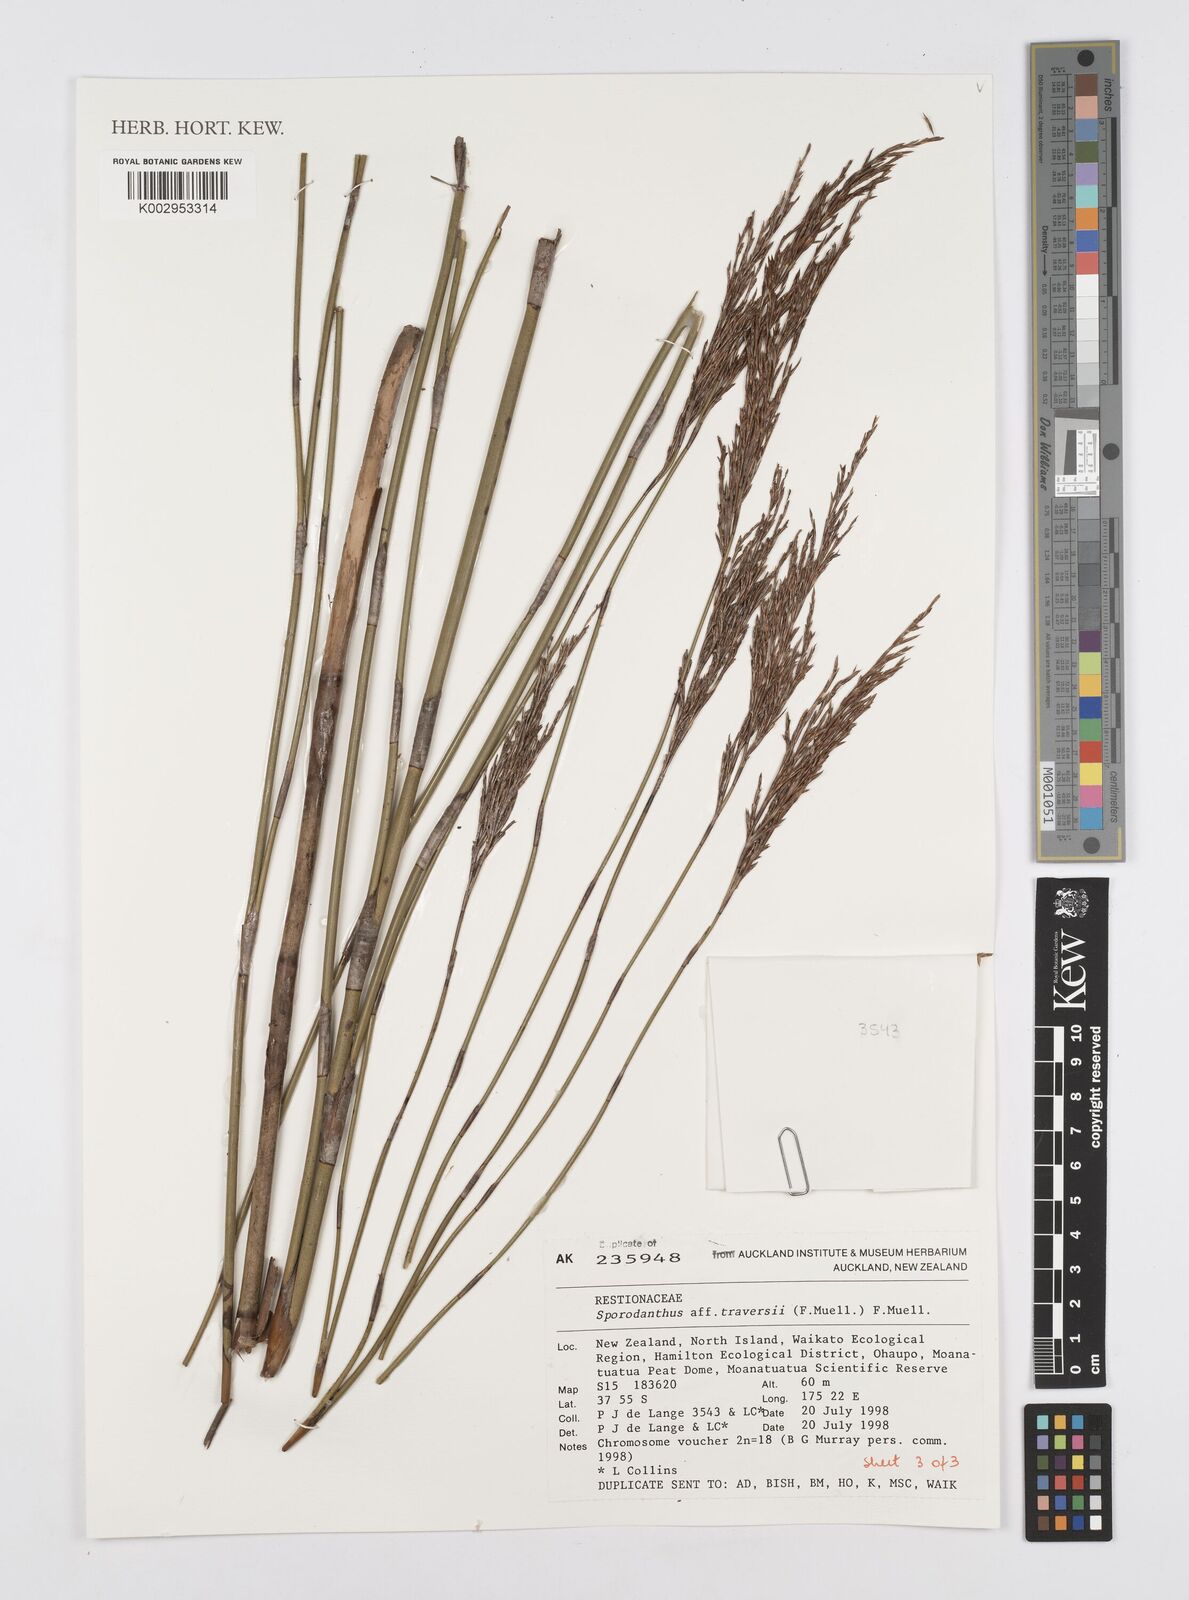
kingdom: Plantae
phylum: Tracheophyta
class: Liliopsida
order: Poales
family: Restionaceae
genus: Sporadanthus
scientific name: Sporadanthus traversii
